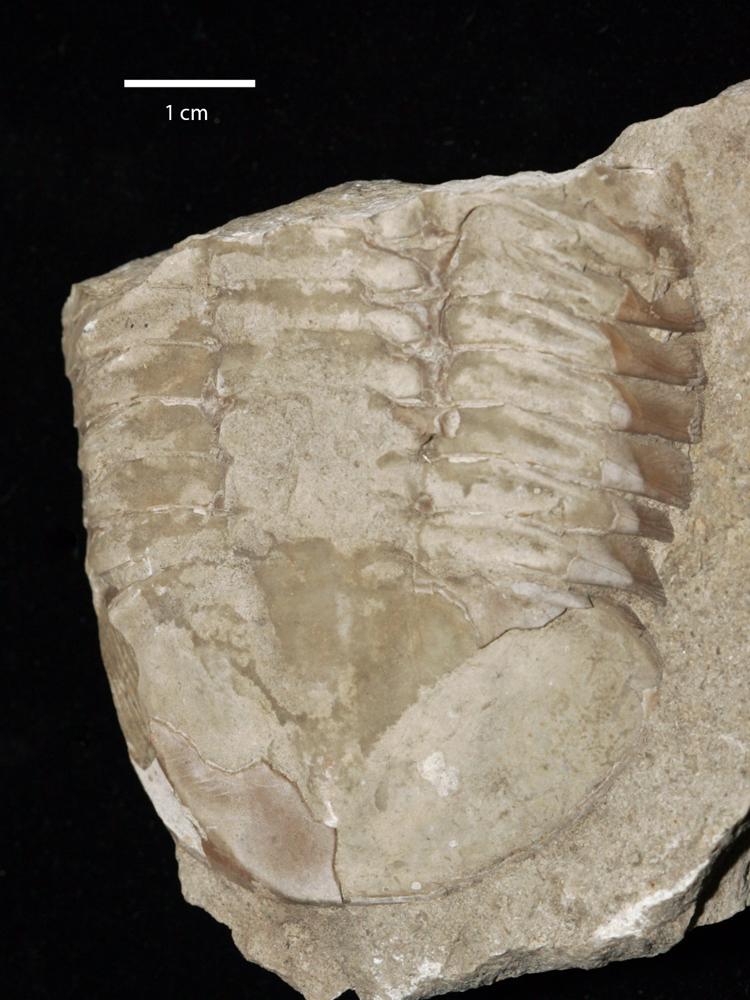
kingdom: Animalia
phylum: Arthropoda
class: Trilobita
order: Asaphida
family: Asaphidae
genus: Pseudasaphus
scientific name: Pseudasaphus globifrons
